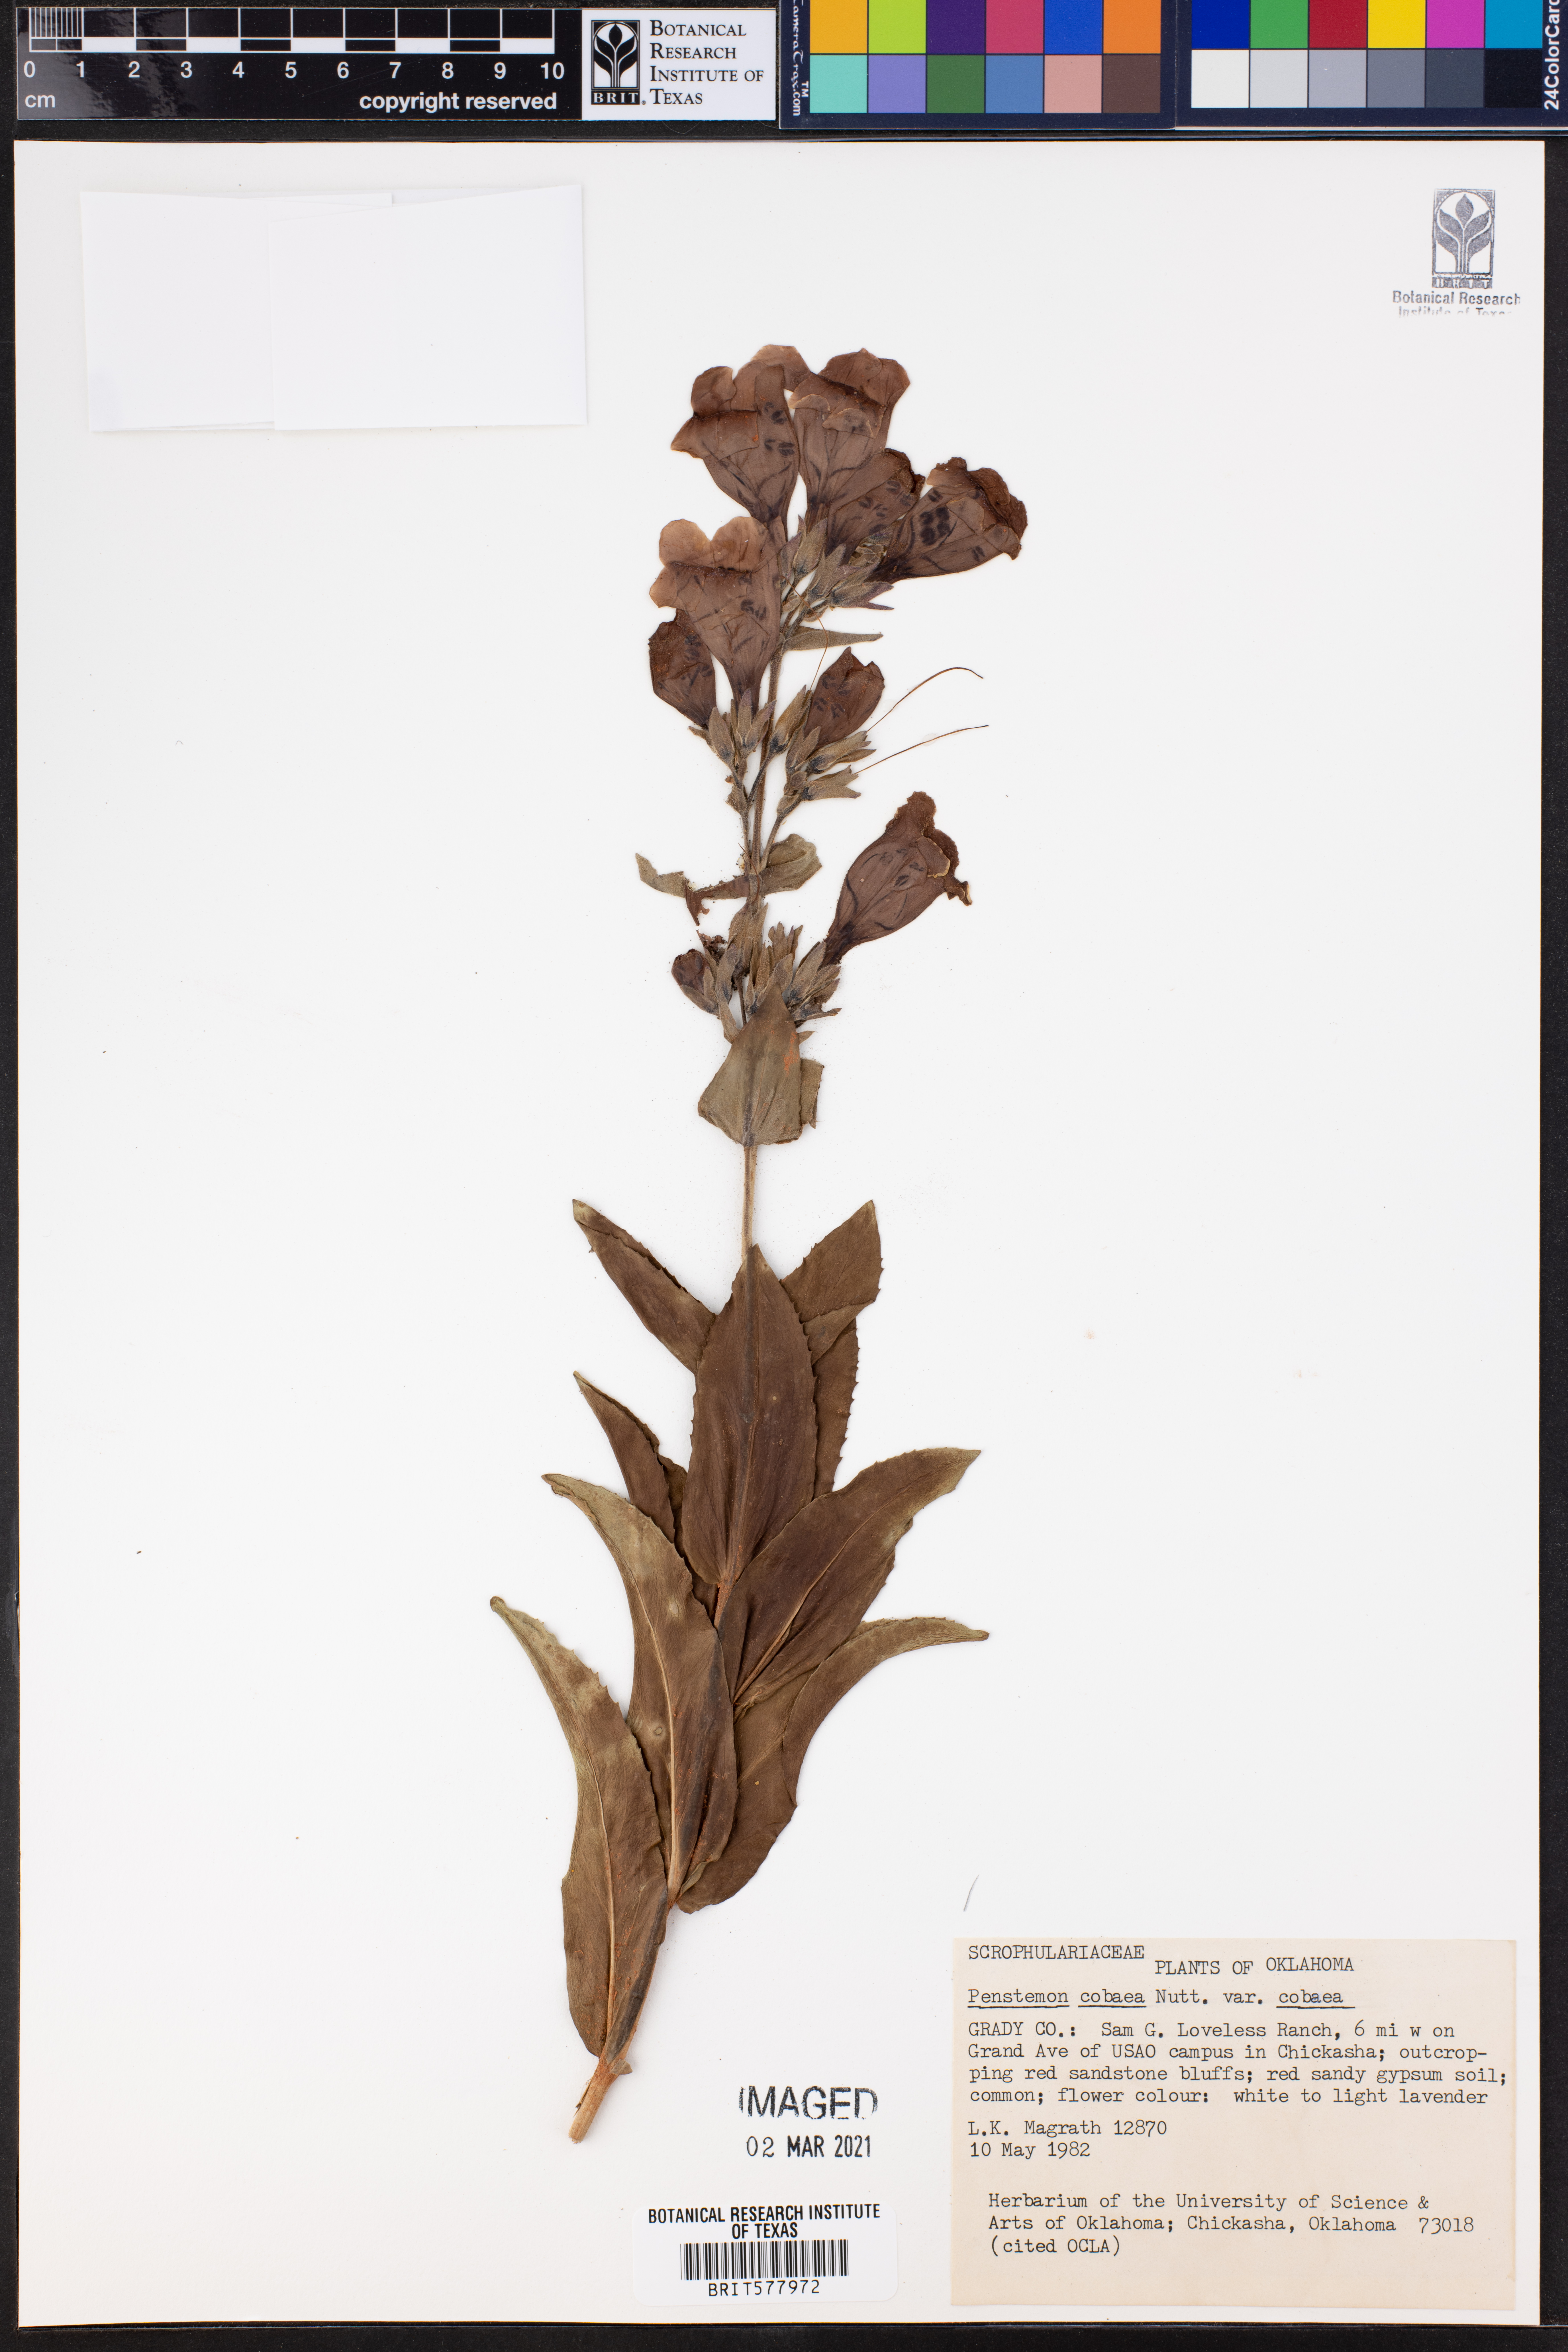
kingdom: Plantae
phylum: Tracheophyta
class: Magnoliopsida
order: Lamiales
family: Plantaginaceae
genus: Penstemon
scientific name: Penstemon cobaea
